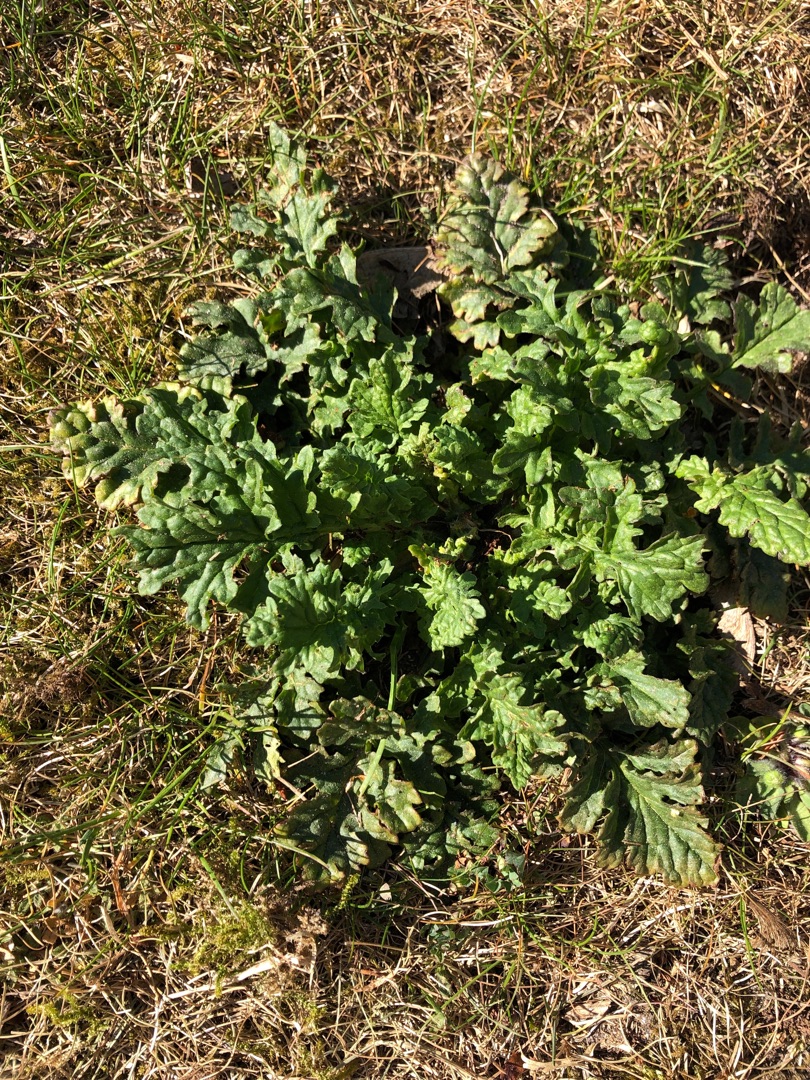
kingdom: Plantae
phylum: Tracheophyta
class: Magnoliopsida
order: Asterales
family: Asteraceae
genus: Jacobaea
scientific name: Jacobaea vulgaris
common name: Eng-brandbæger
